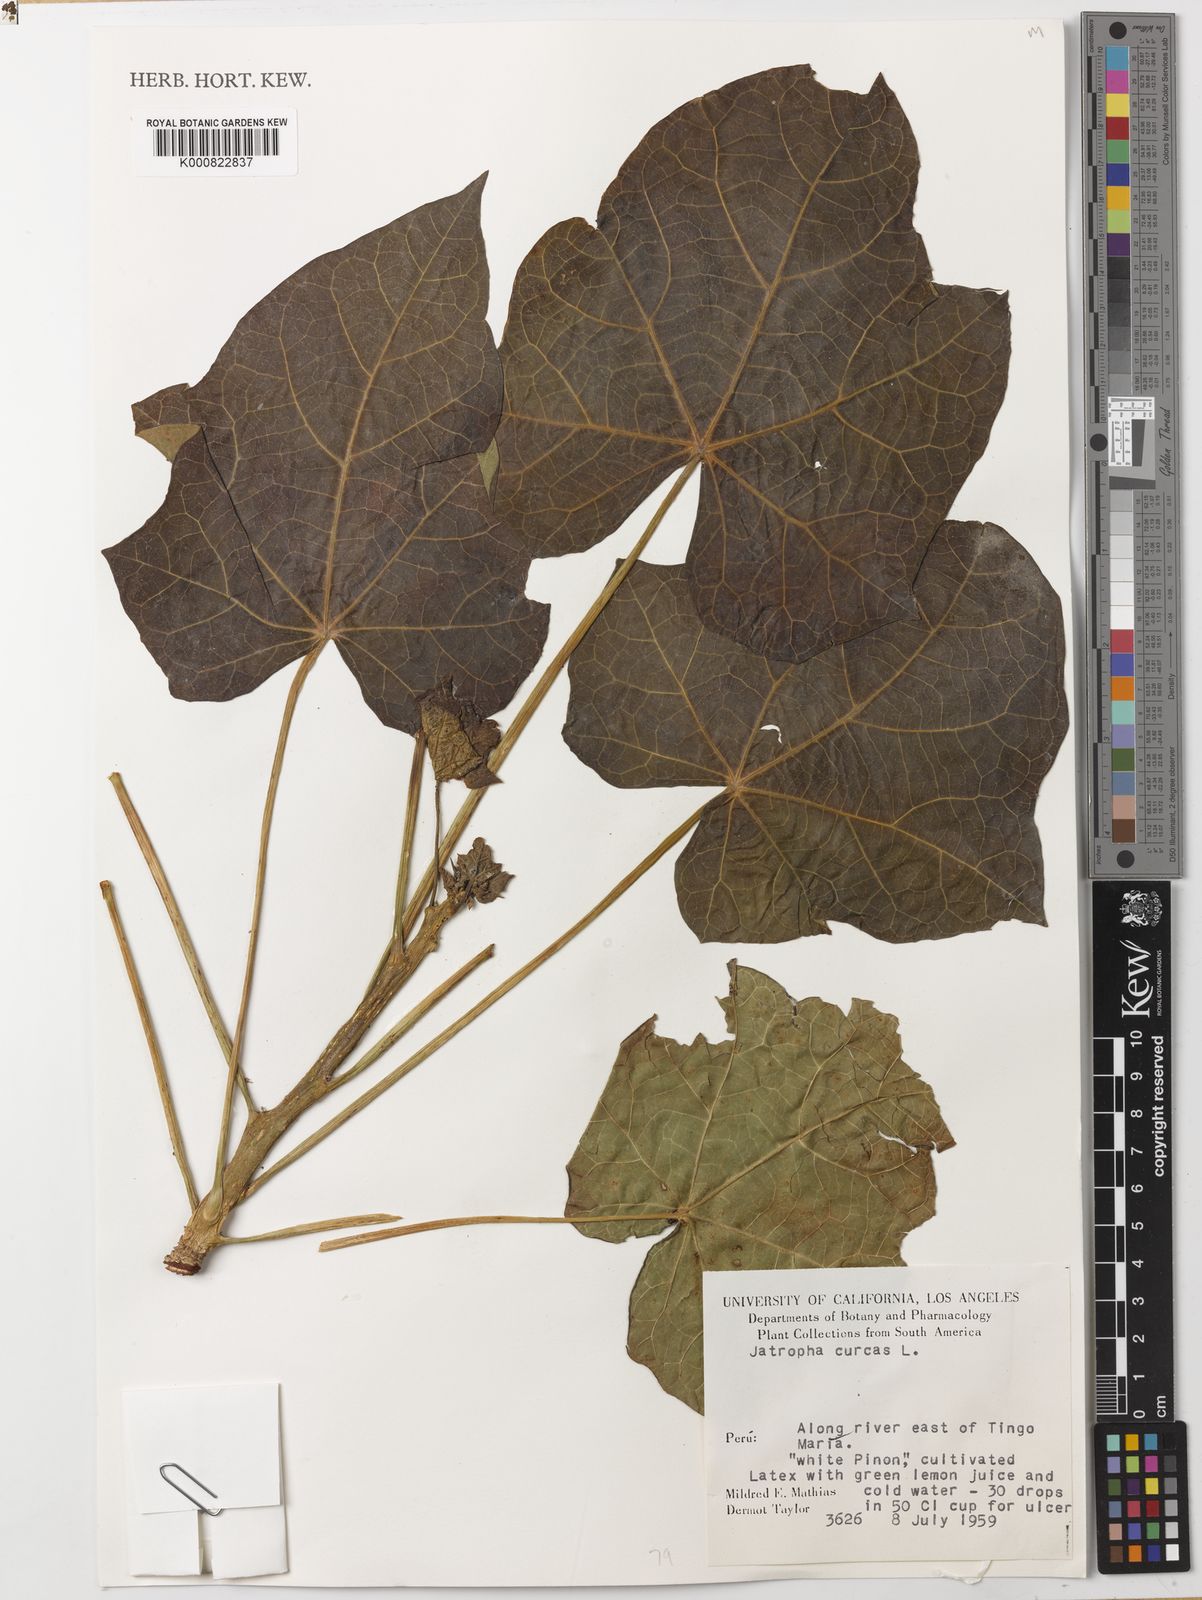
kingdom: Plantae
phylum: Tracheophyta
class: Magnoliopsida
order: Malpighiales
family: Euphorbiaceae
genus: Jatropha
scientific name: Jatropha curcas
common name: Barbados nut
